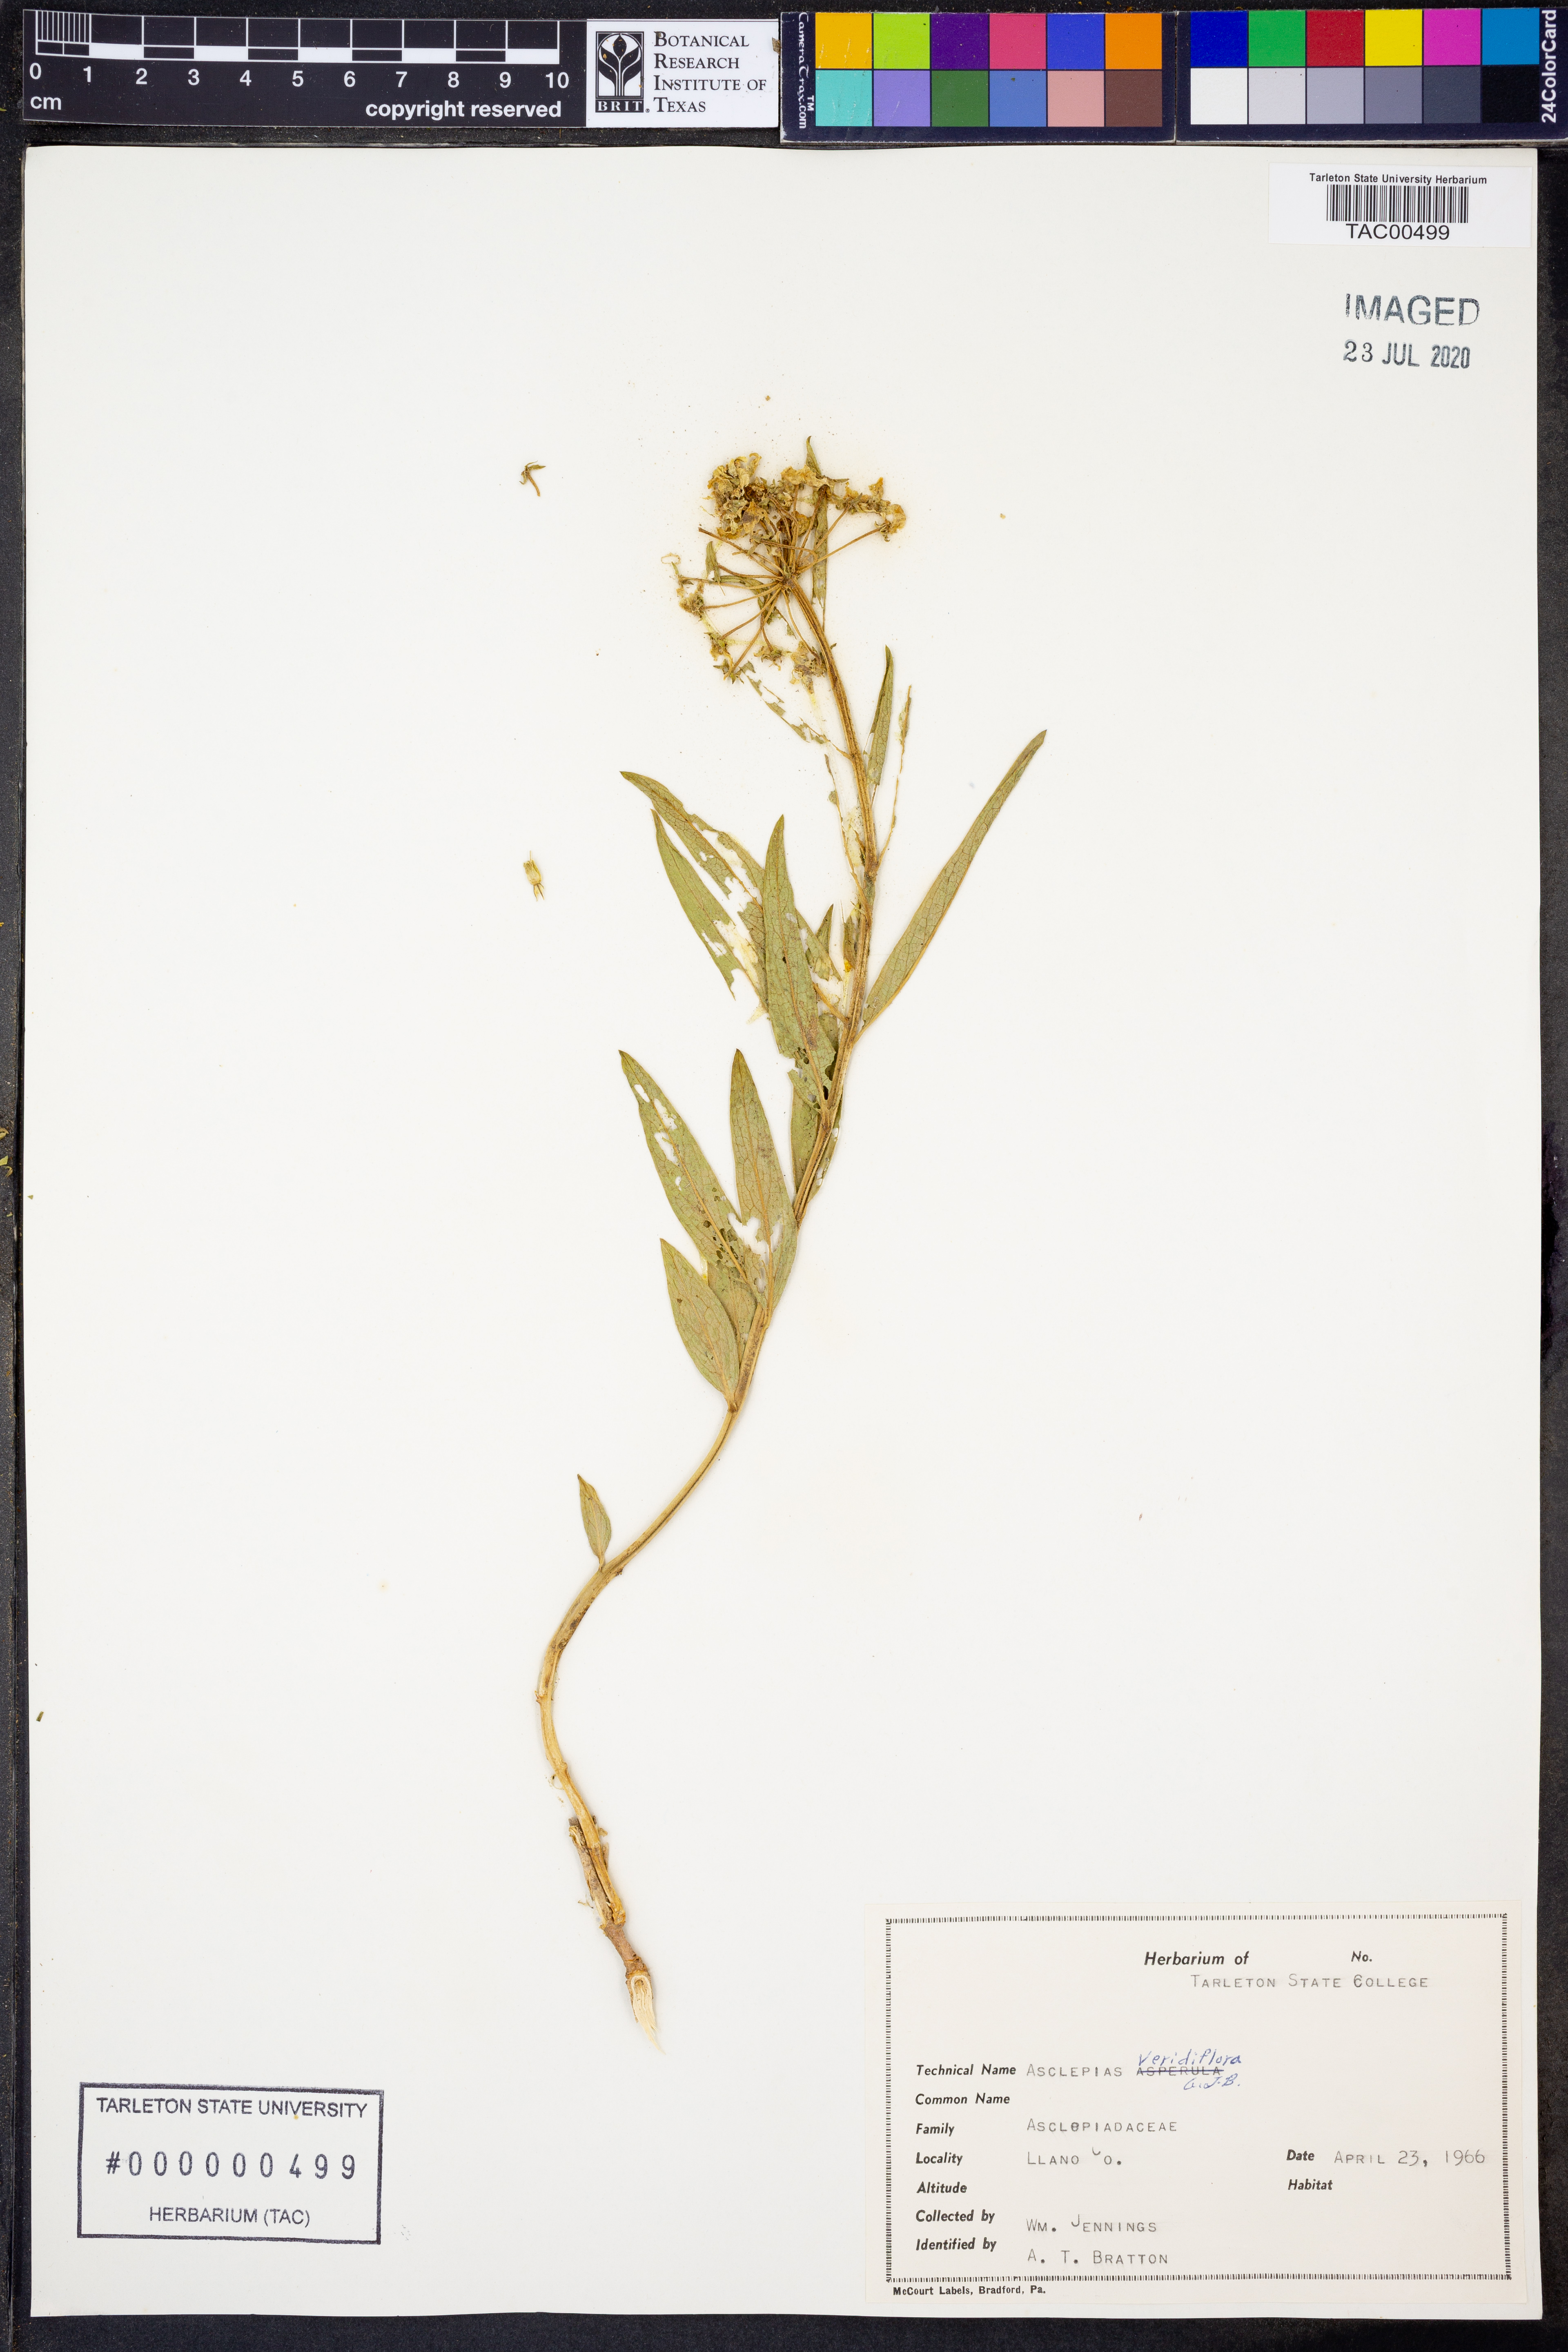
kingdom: Plantae
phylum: Tracheophyta
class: Magnoliopsida
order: Gentianales
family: Apocynaceae
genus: Asclepias
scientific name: Asclepias viridiflora
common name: Green comet milkweed
